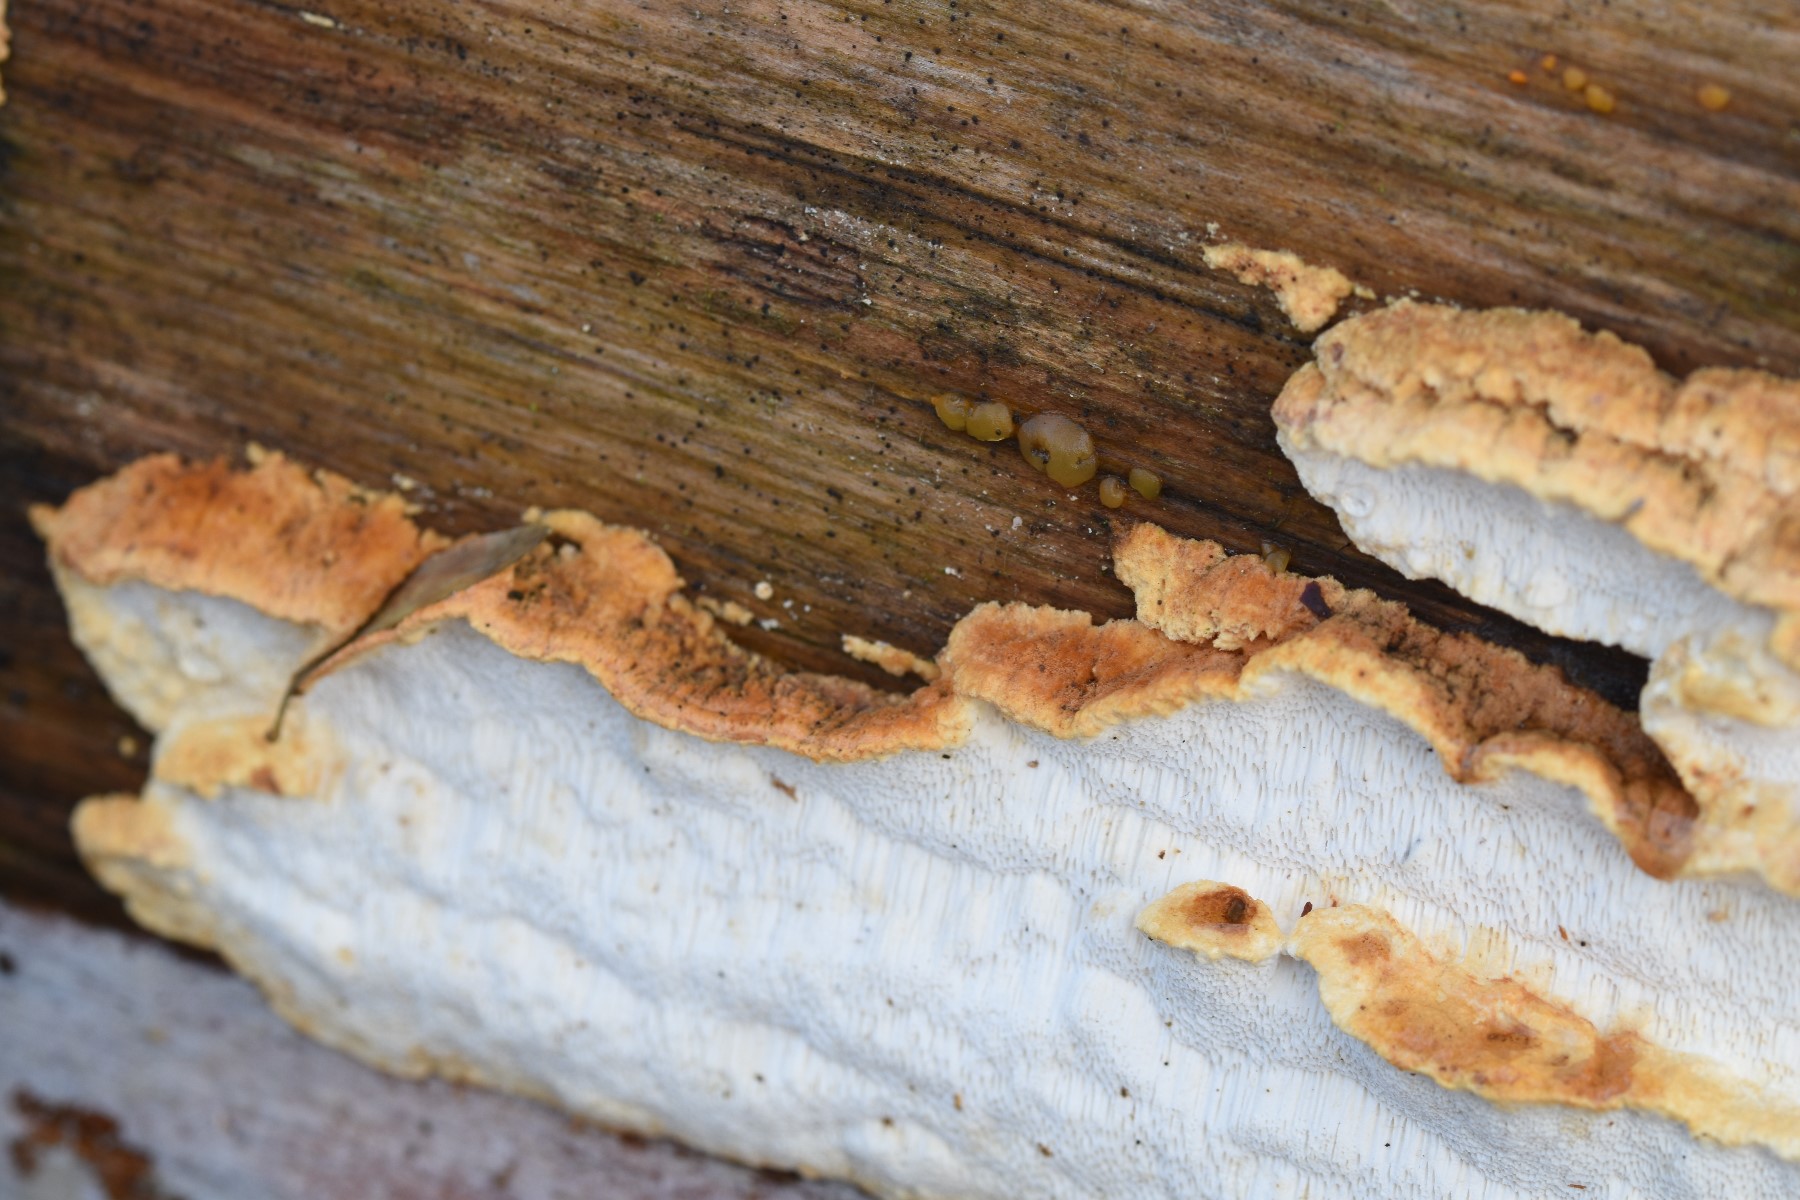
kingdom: Fungi
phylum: Basidiomycota
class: Agaricomycetes
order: Polyporales
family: Fomitopsidaceae
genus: Neoantrodia
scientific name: Neoantrodia serialis
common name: række-sejporesvamp
